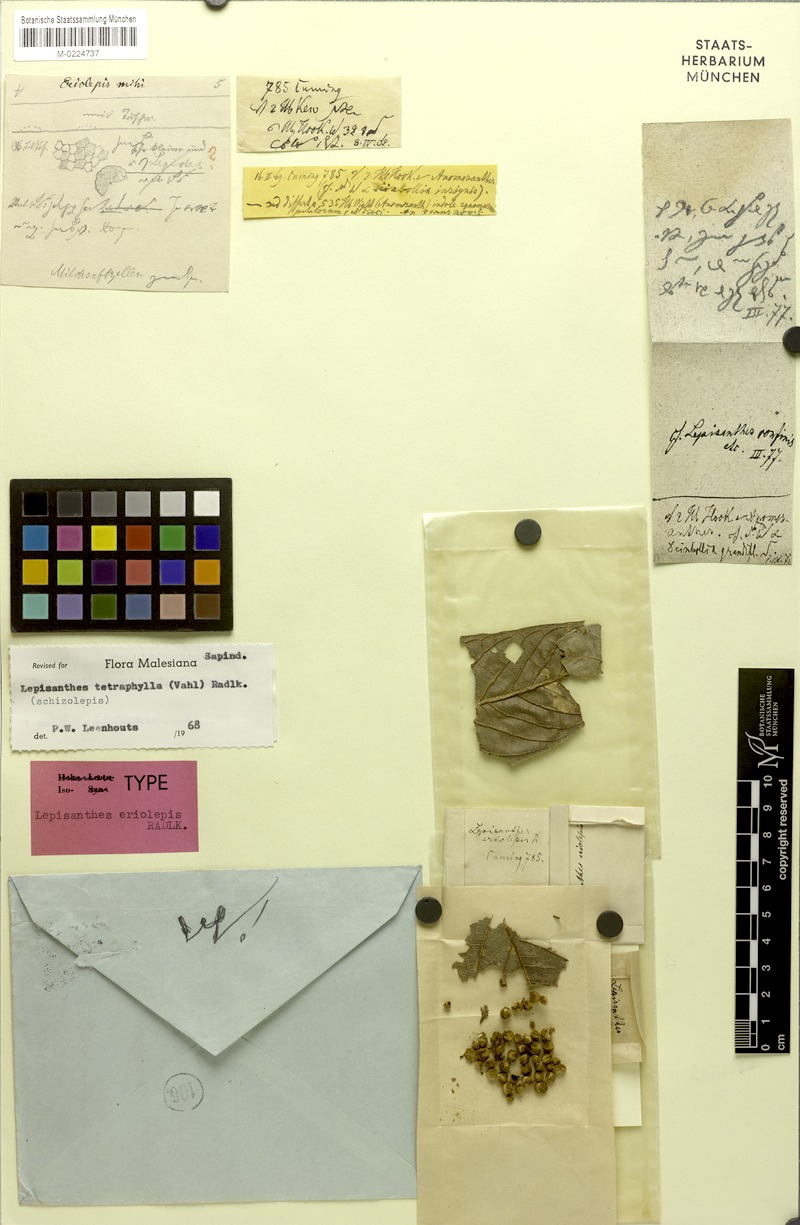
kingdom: Plantae
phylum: Tracheophyta
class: Magnoliopsida
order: Sapindales
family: Sapindaceae
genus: Lepisanthes
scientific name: Lepisanthes tetraphylla
